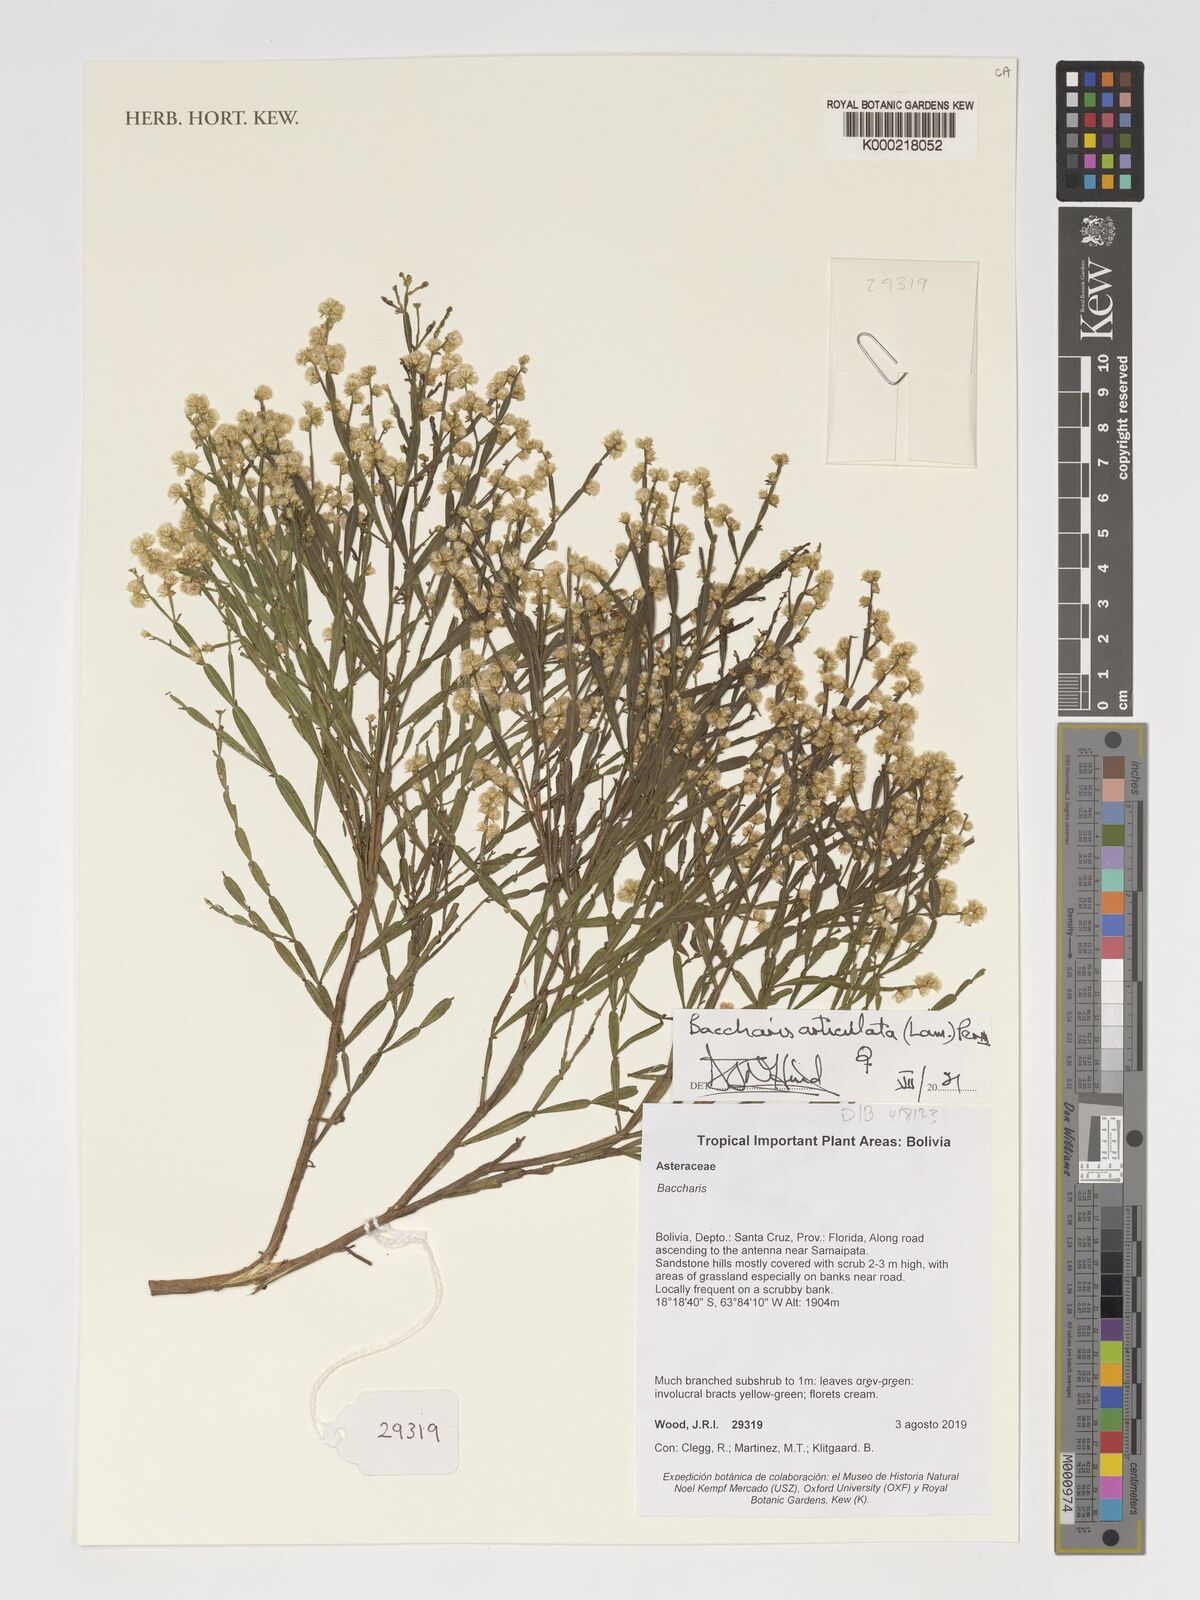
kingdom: Plantae
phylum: Tracheophyta
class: Magnoliopsida
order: Asterales
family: Asteraceae
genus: Baccharis
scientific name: Baccharis articulata
